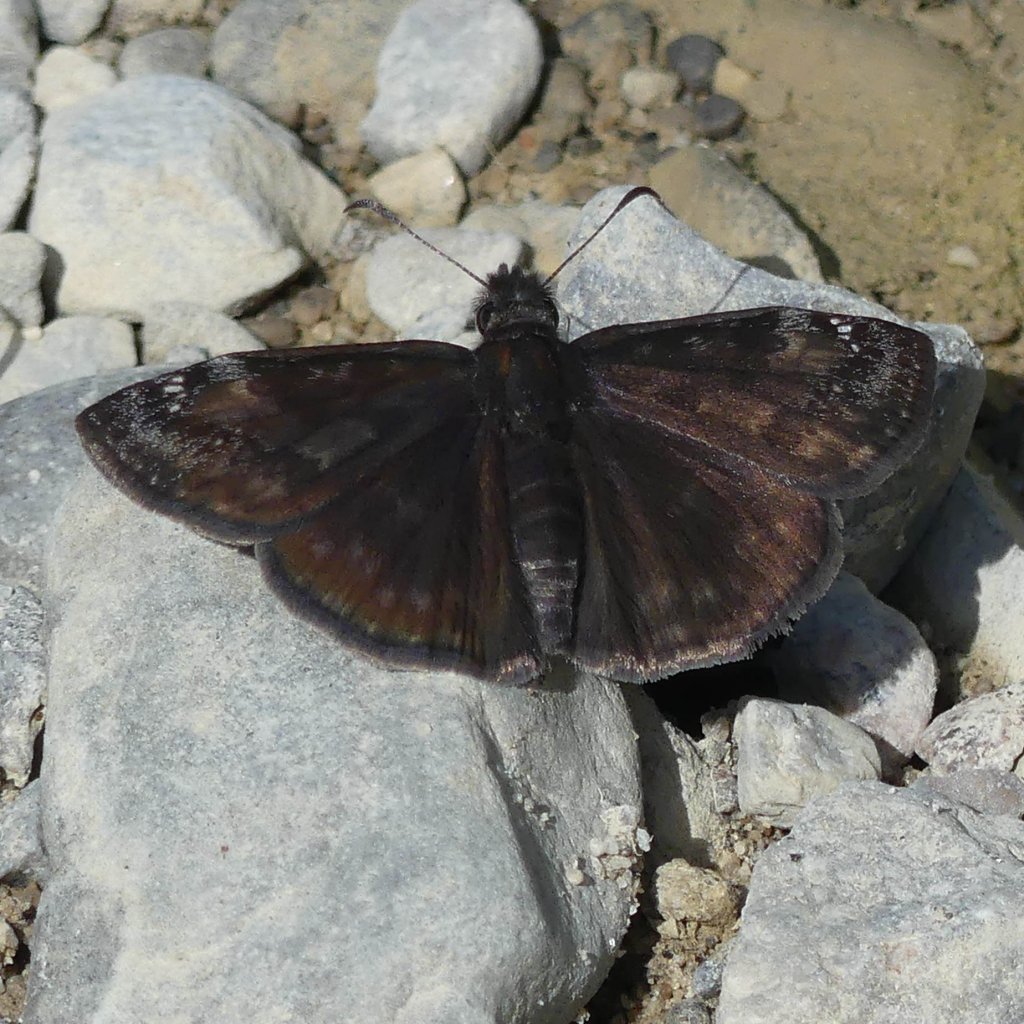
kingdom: Animalia
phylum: Arthropoda
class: Insecta
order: Lepidoptera
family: Hesperiidae
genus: Gesta
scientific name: Gesta
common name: Wild Indigo Duskywing
